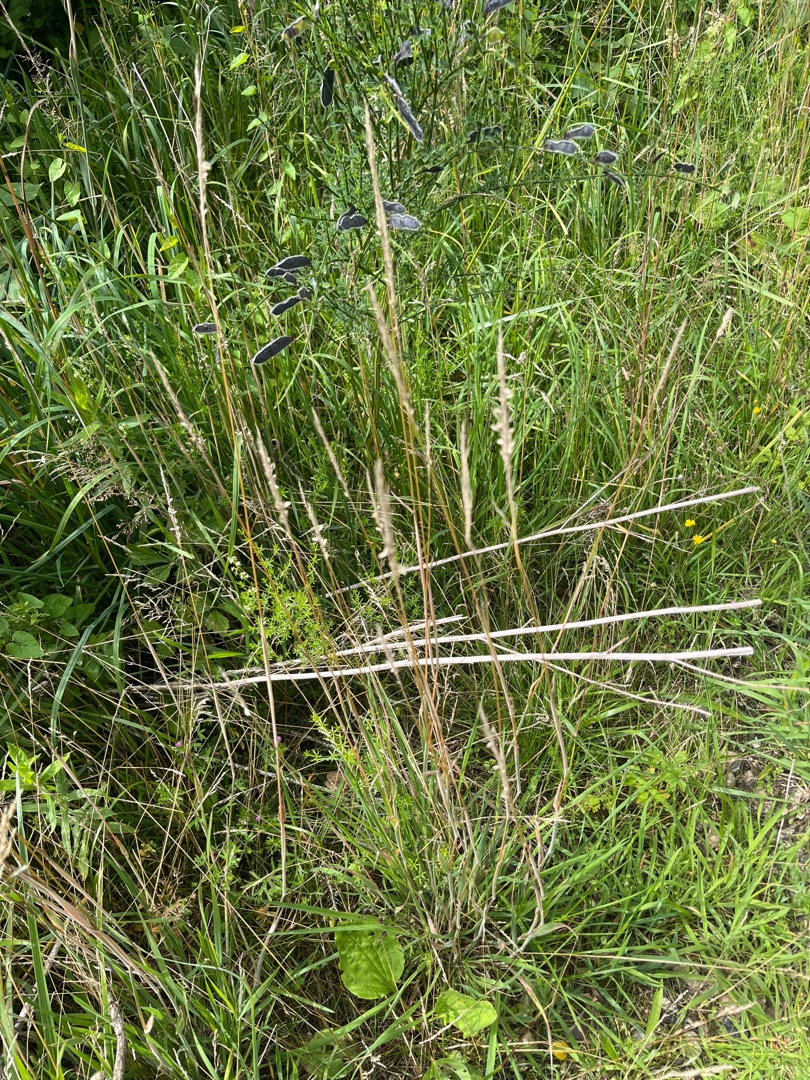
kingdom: Plantae
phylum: Tracheophyta
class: Liliopsida
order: Poales
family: Poaceae
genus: Holcus
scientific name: Holcus lanatus
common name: Fløjlsgræs
